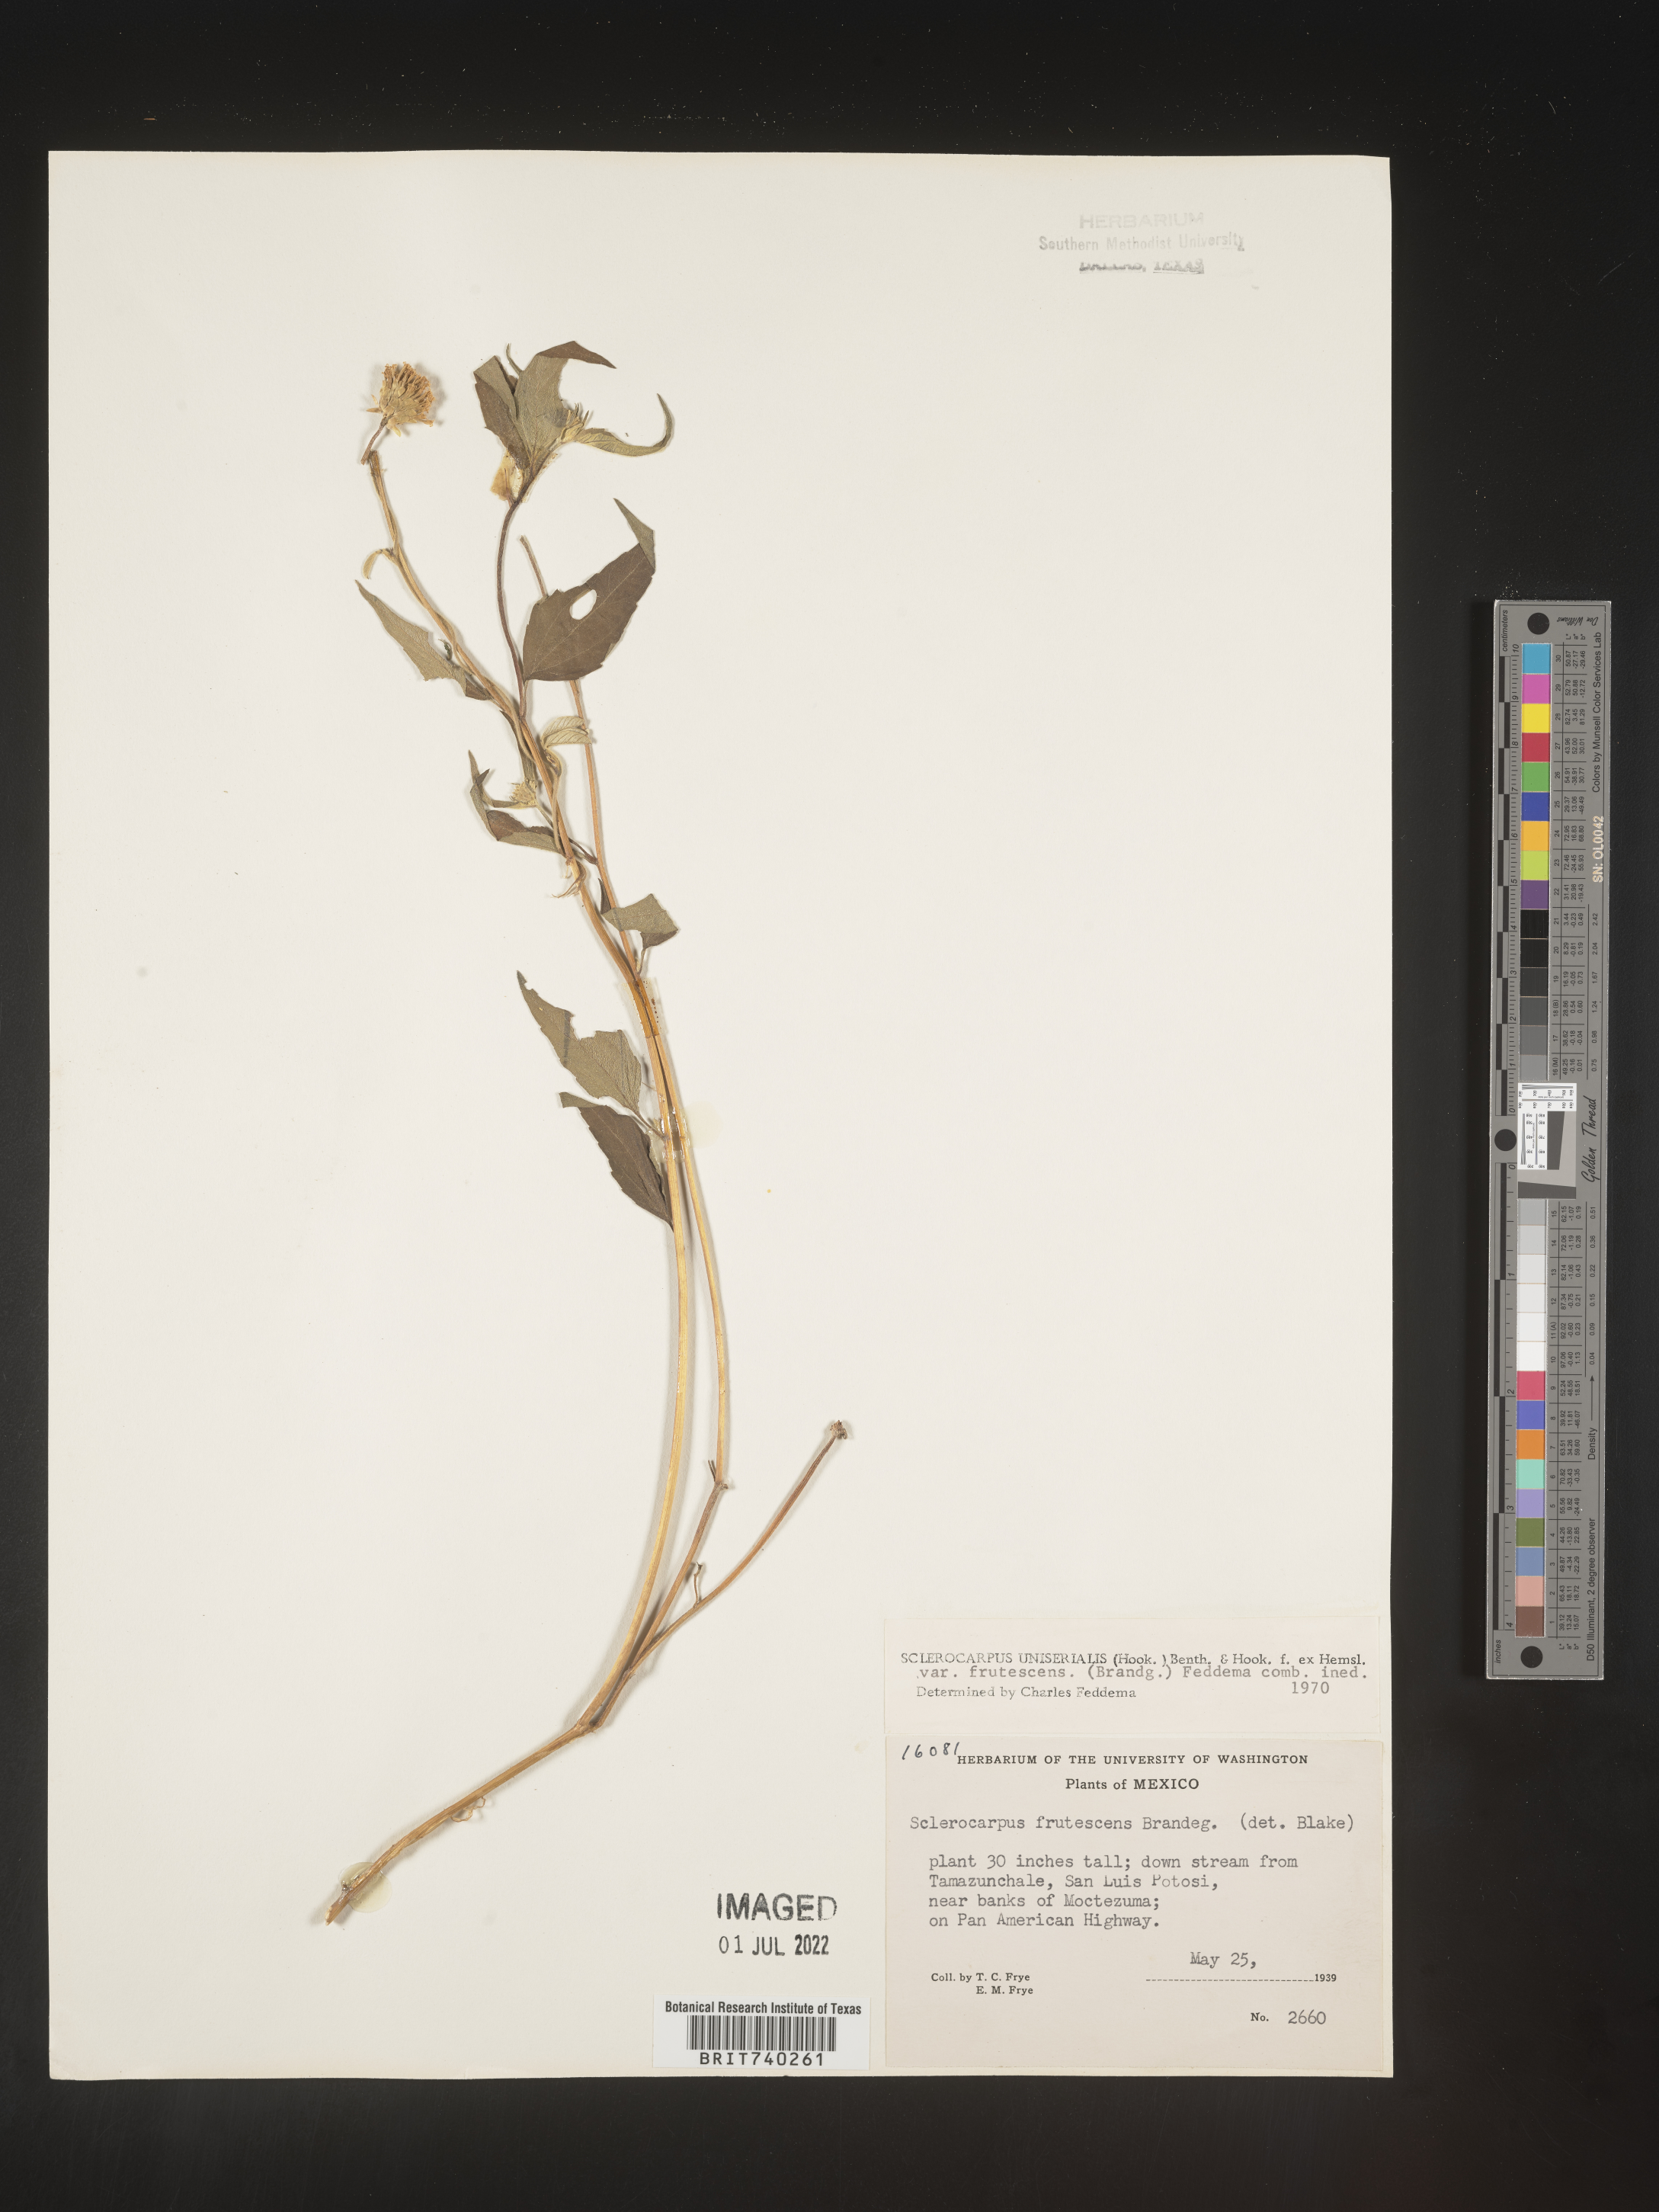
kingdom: Plantae
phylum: Tracheophyta
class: Magnoliopsida
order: Asterales
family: Asteraceae
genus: Sclerocarpus
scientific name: Sclerocarpus
